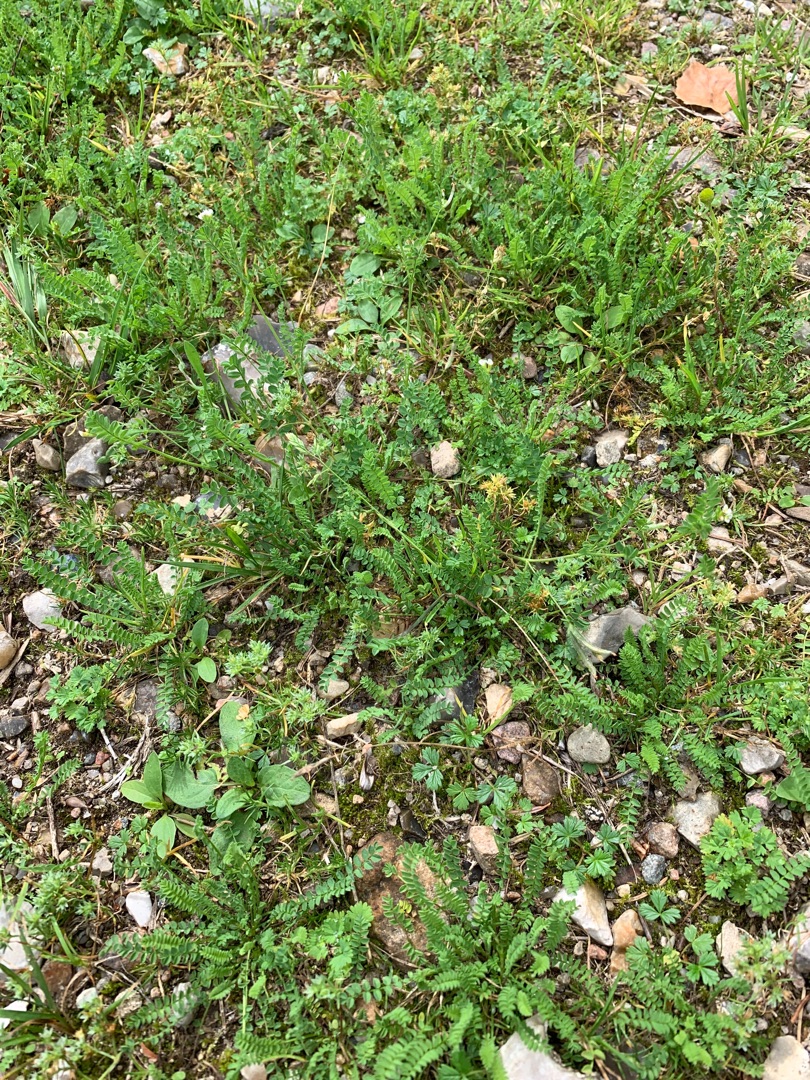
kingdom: Plantae
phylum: Tracheophyta
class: Magnoliopsida
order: Fabales
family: Fabaceae
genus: Ornithopus
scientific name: Ornithopus perpusillus
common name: Liden fugleklo
